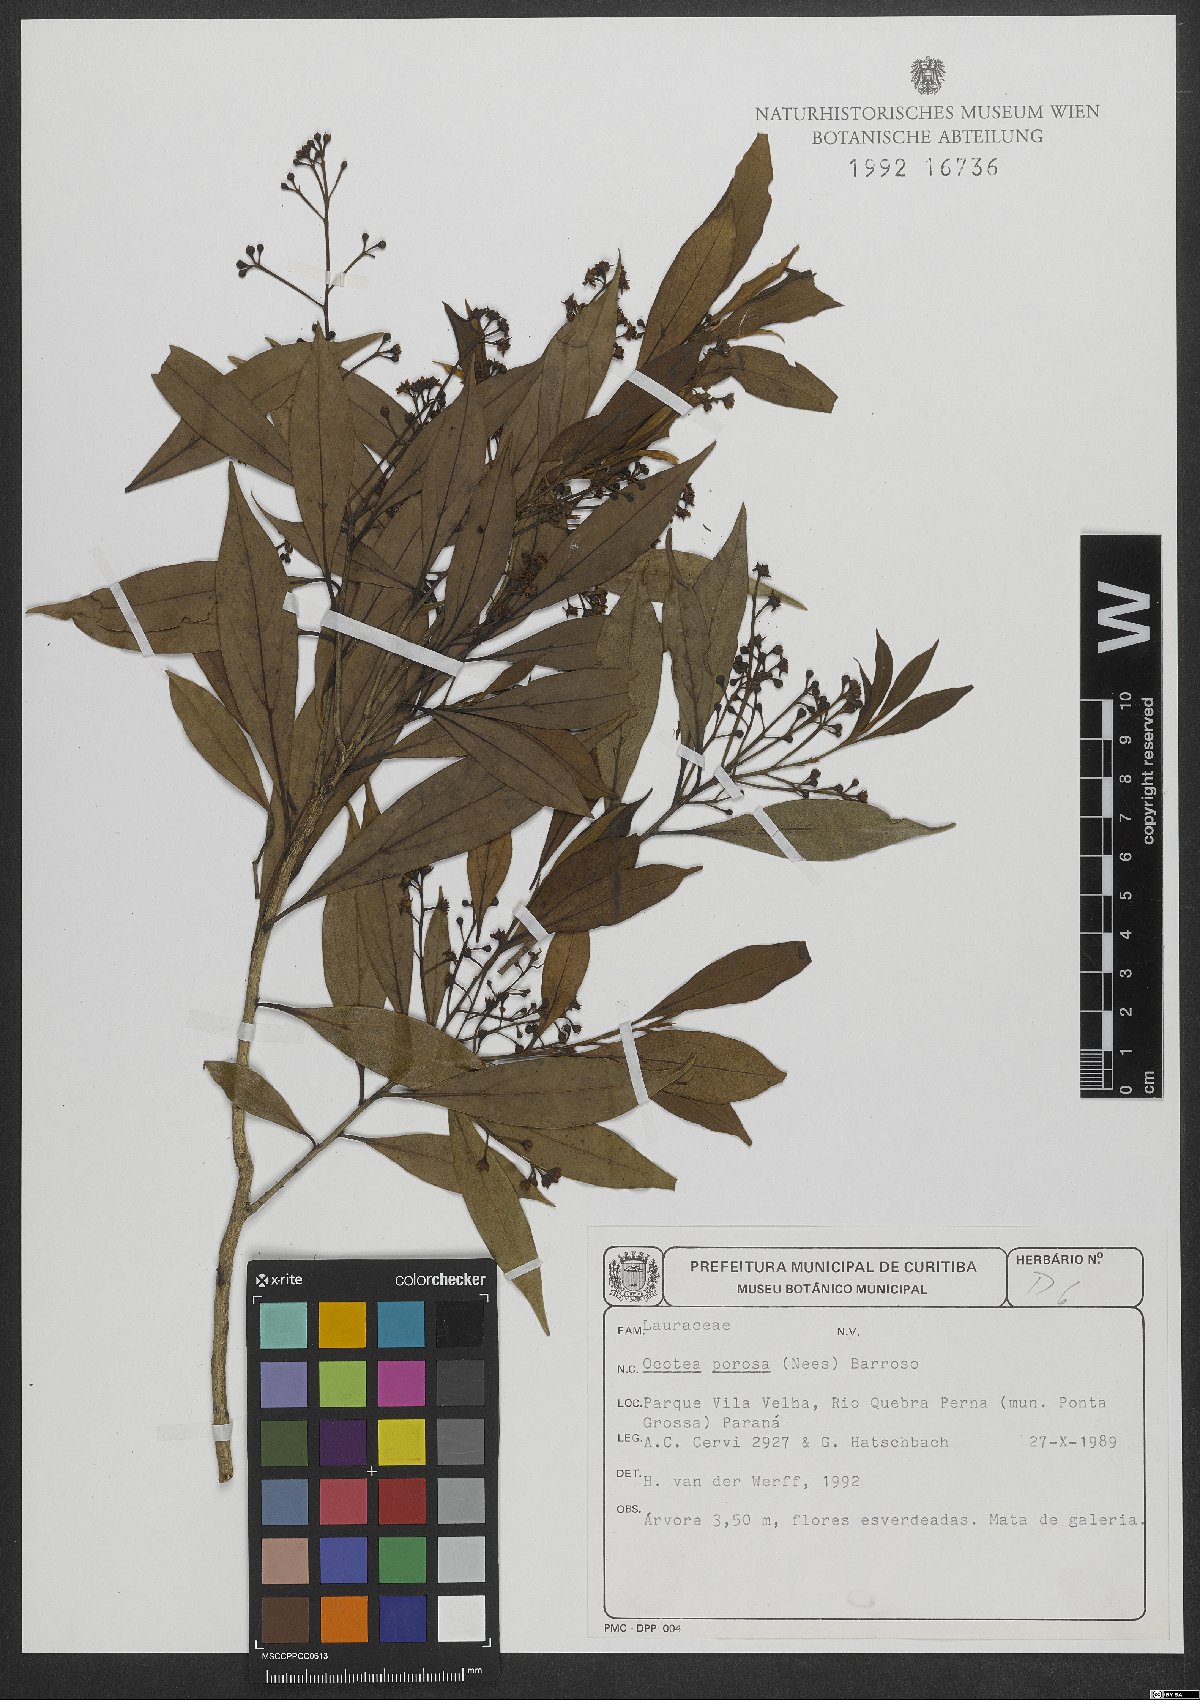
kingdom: Plantae
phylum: Tracheophyta
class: Magnoliopsida
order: Laurales
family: Lauraceae
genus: Ocotea
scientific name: Ocotea porosa
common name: Brazilian-walnut
